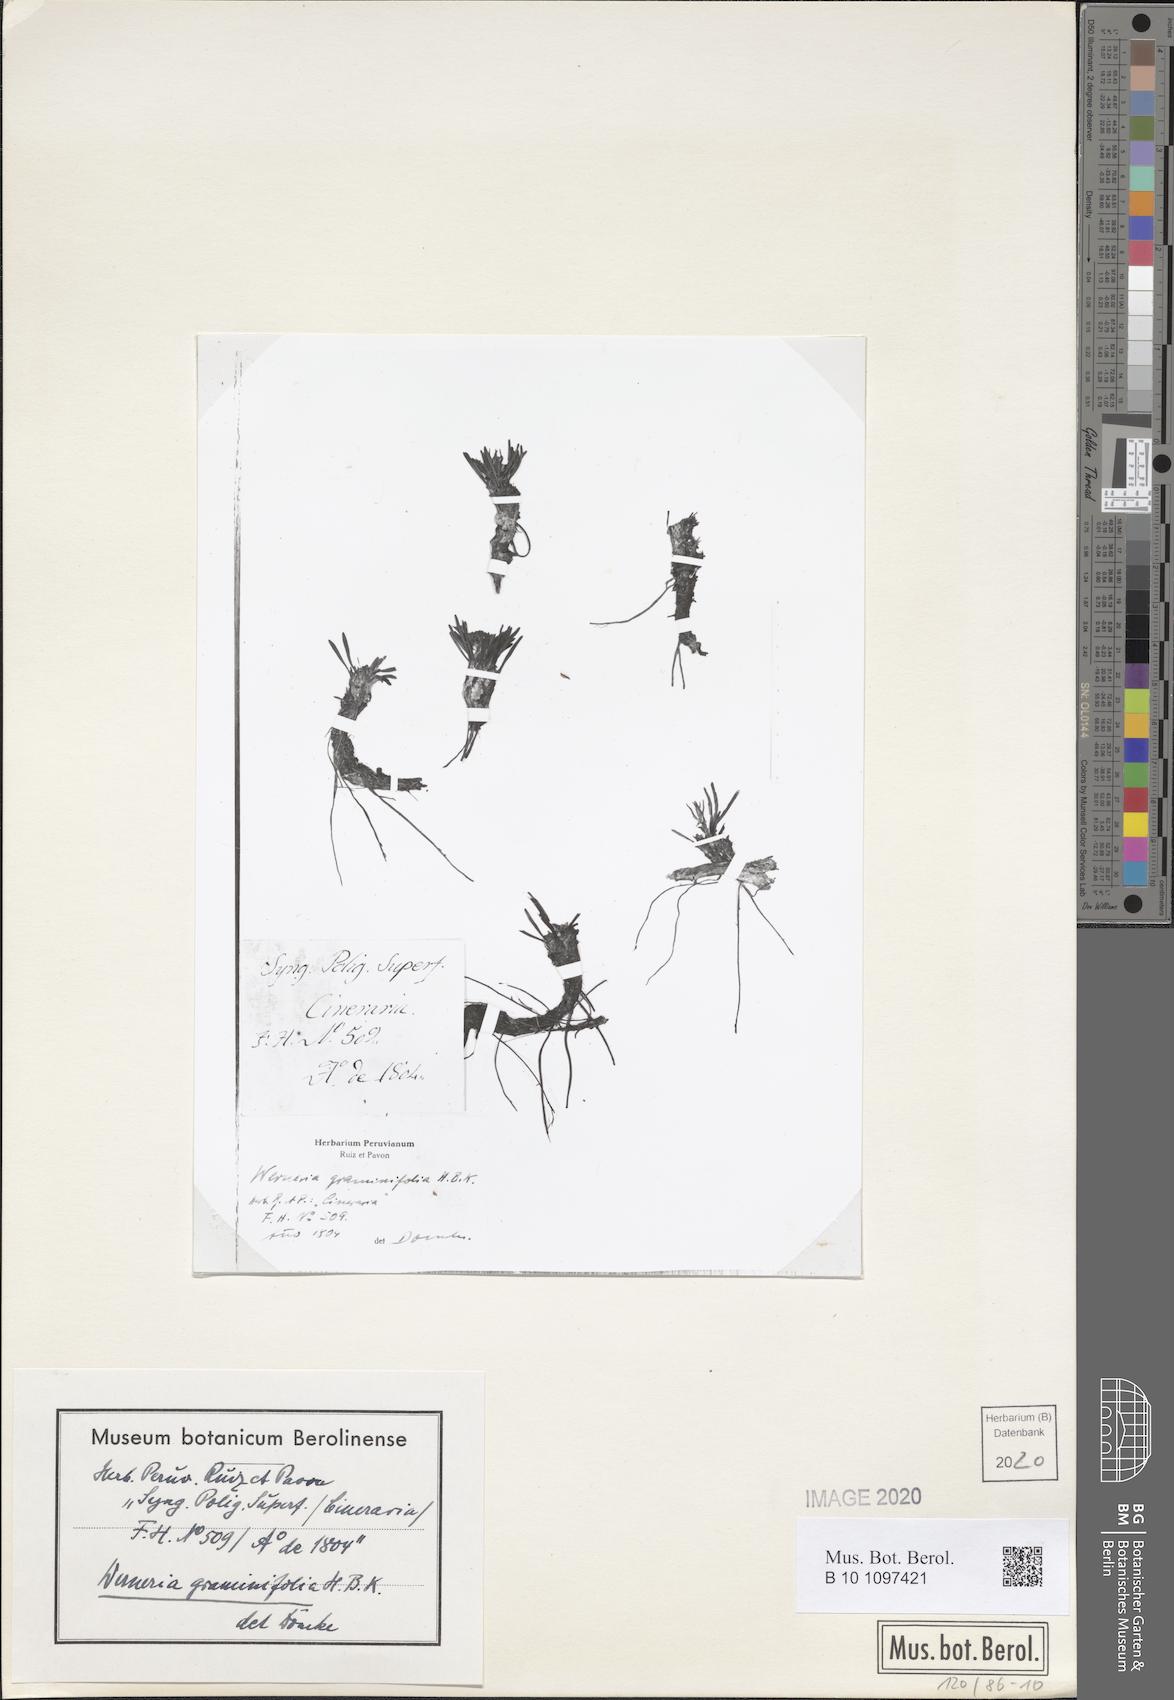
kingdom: Plantae
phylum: Tracheophyta
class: Magnoliopsida
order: Asterales
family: Asteraceae
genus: Rockhausenia
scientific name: Rockhausenia graminifolia
